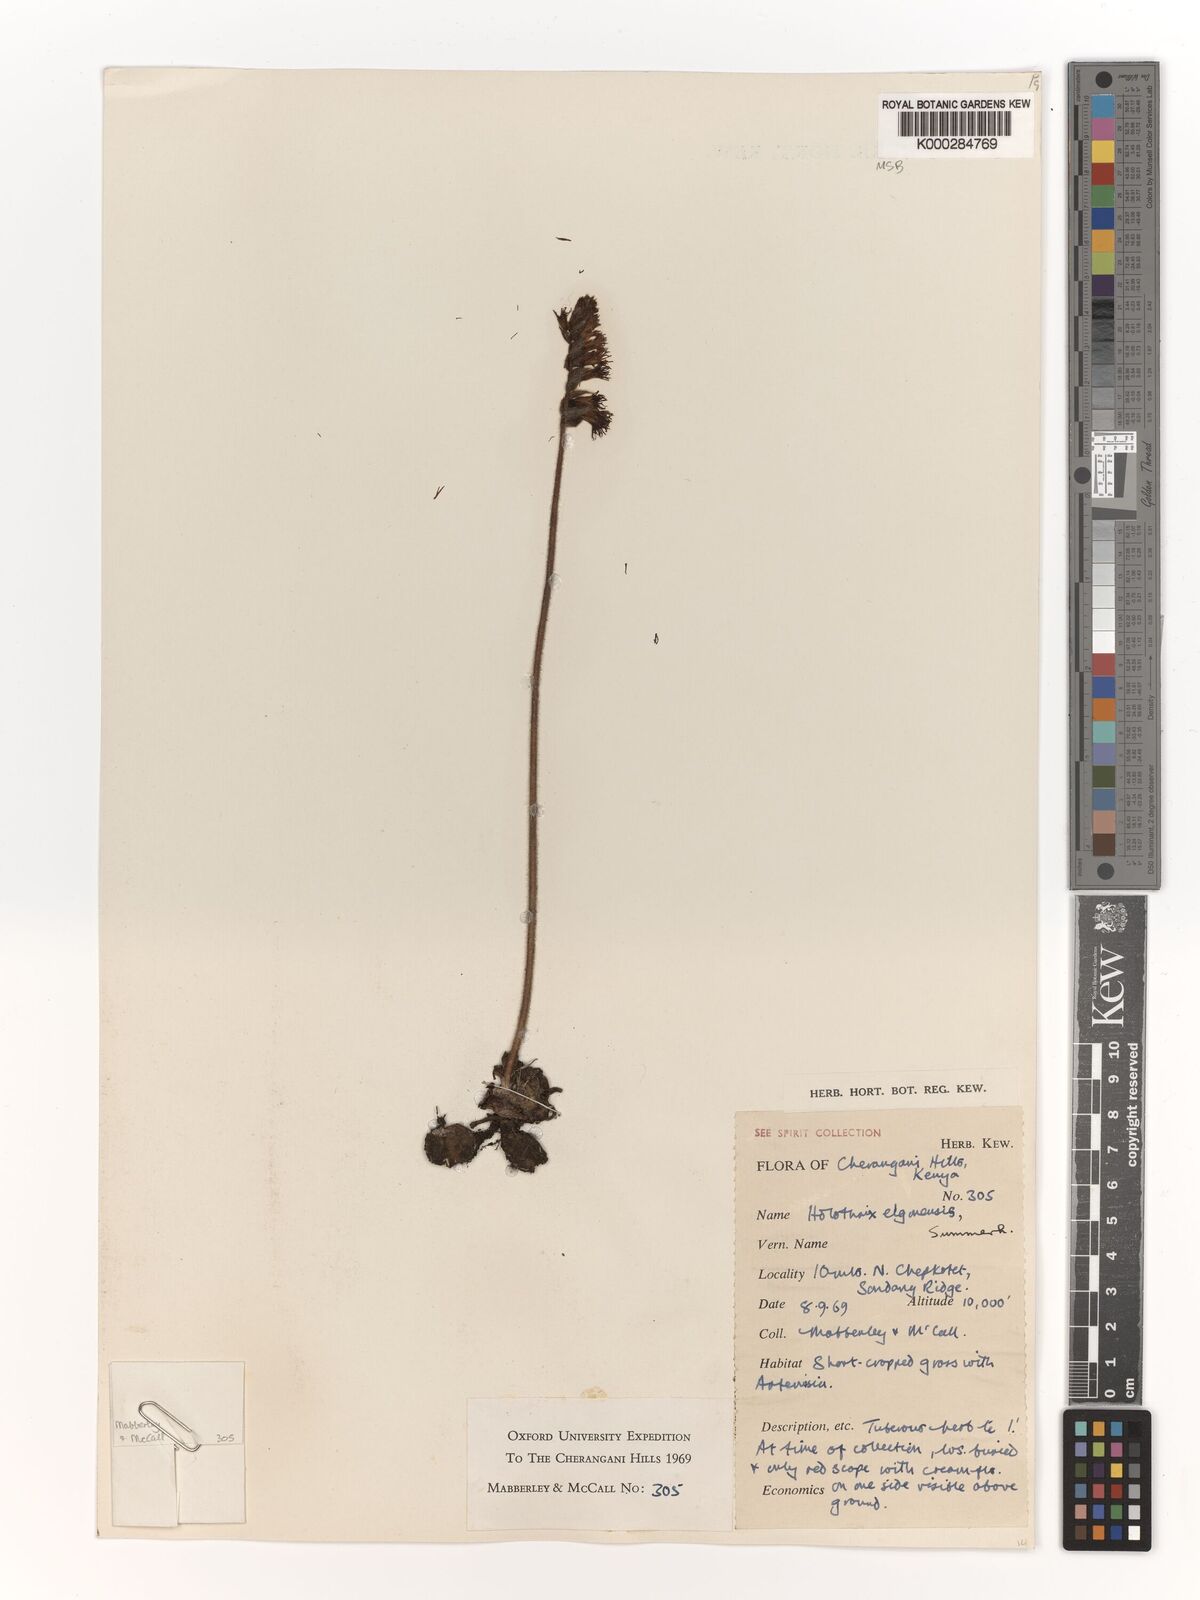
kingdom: Plantae
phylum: Tracheophyta
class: Liliopsida
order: Asparagales
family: Orchidaceae
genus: Holothrix
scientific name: Holothrix elgonensis
